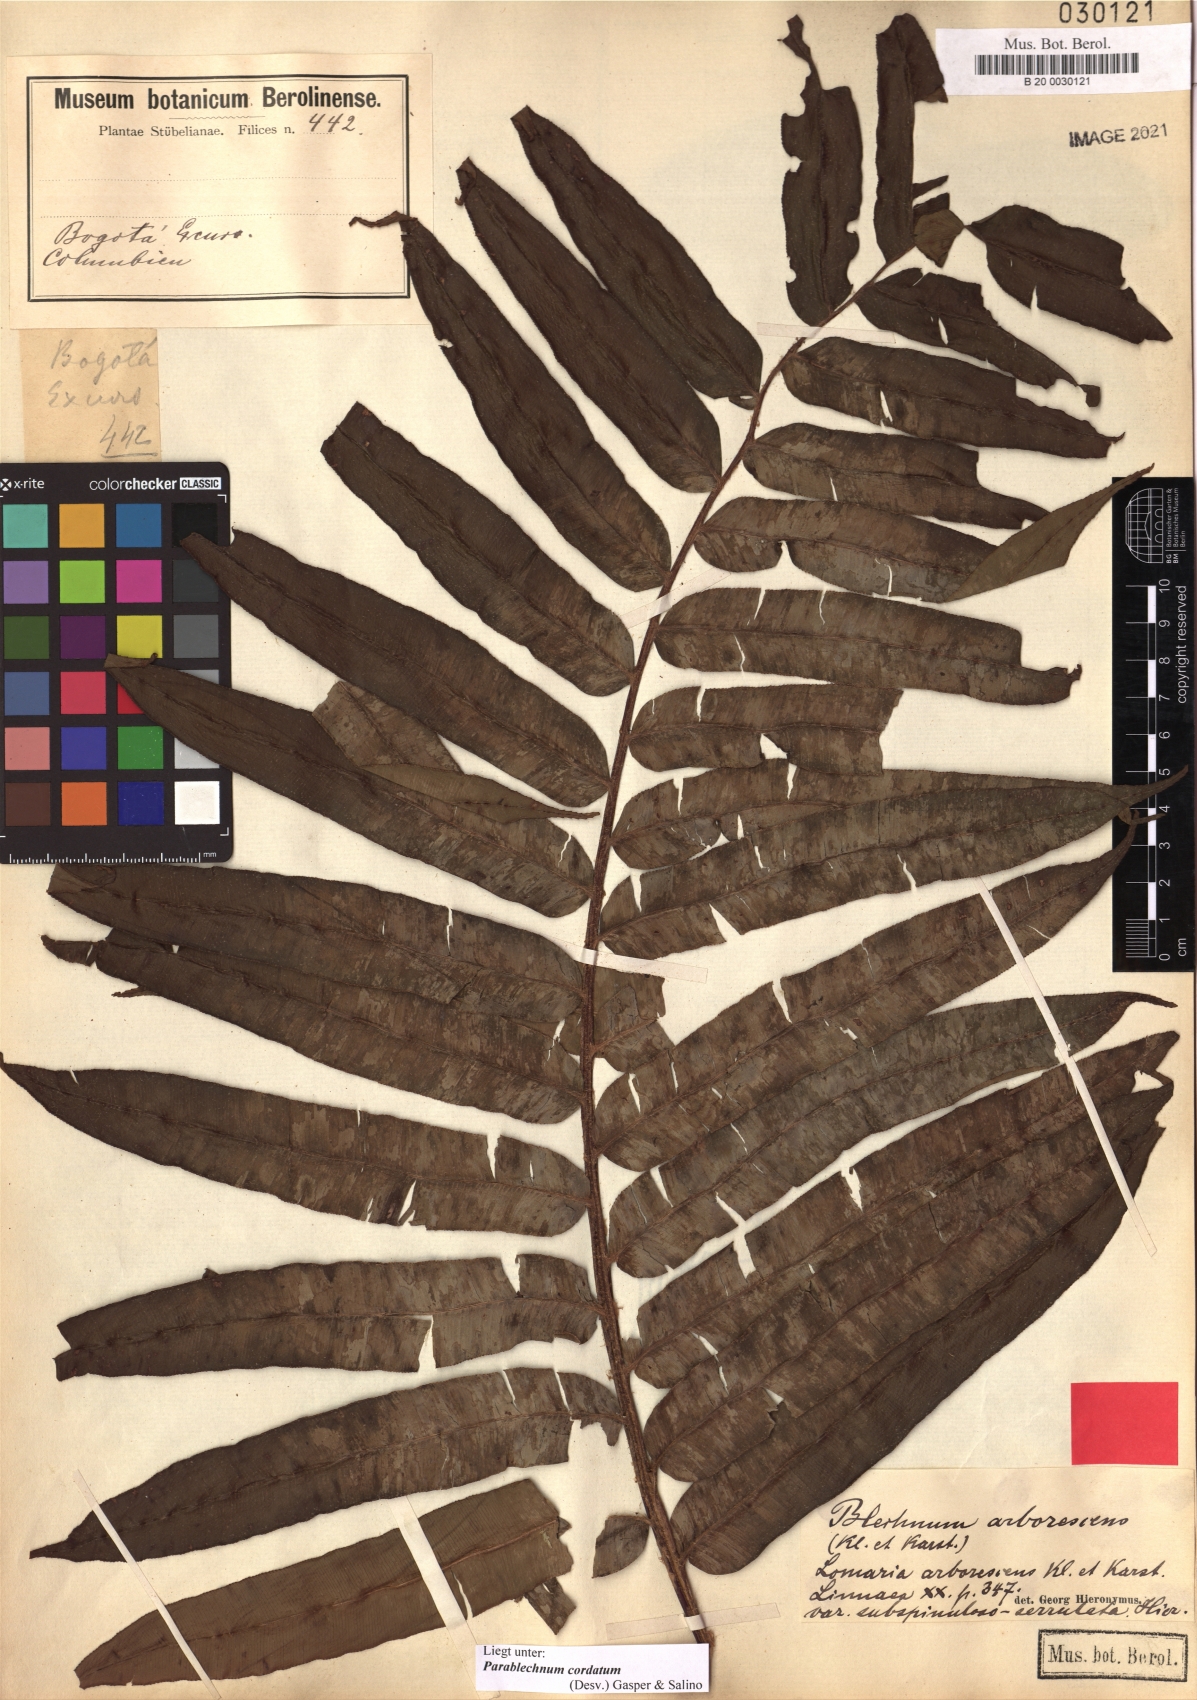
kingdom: Plantae
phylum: Tracheophyta
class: Polypodiopsida
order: Polypodiales
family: Blechnaceae
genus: Parablechnum
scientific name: Parablechnum cordatum
